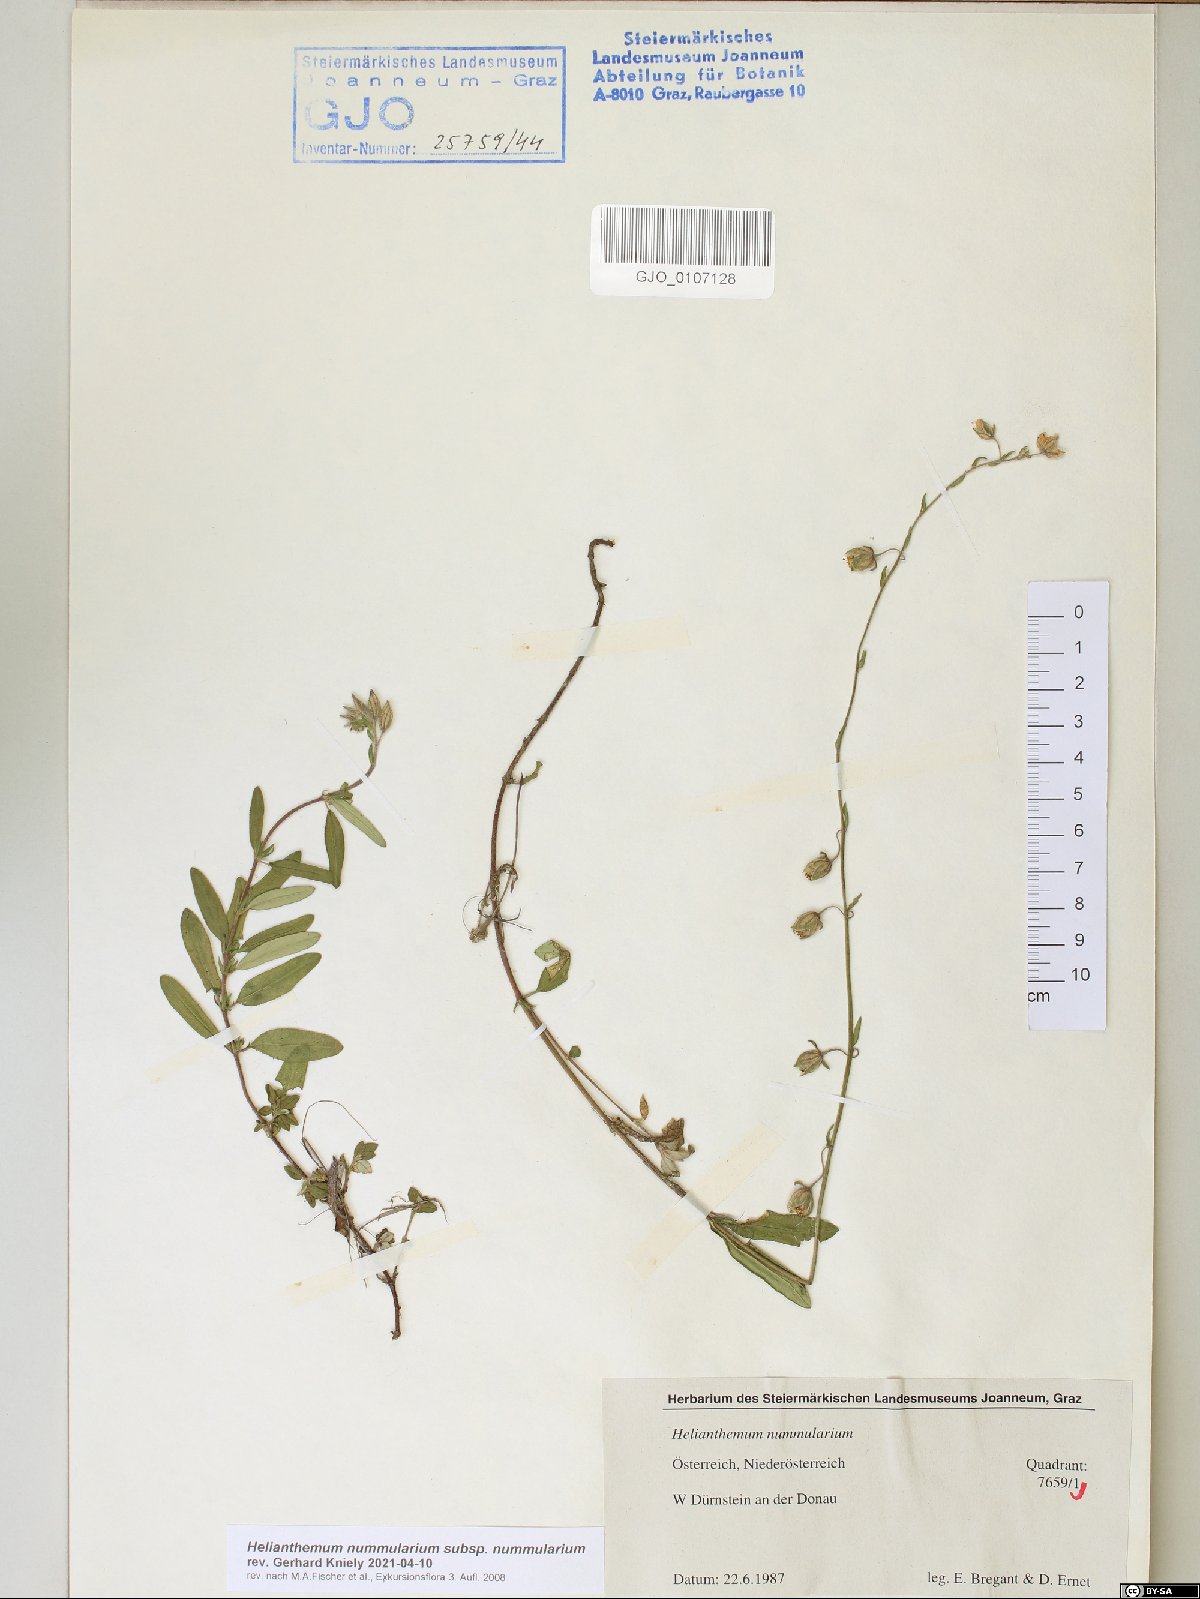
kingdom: Plantae
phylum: Tracheophyta
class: Magnoliopsida
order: Malvales
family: Cistaceae
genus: Helianthemum
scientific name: Helianthemum nummularium
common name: Common rock-rose
